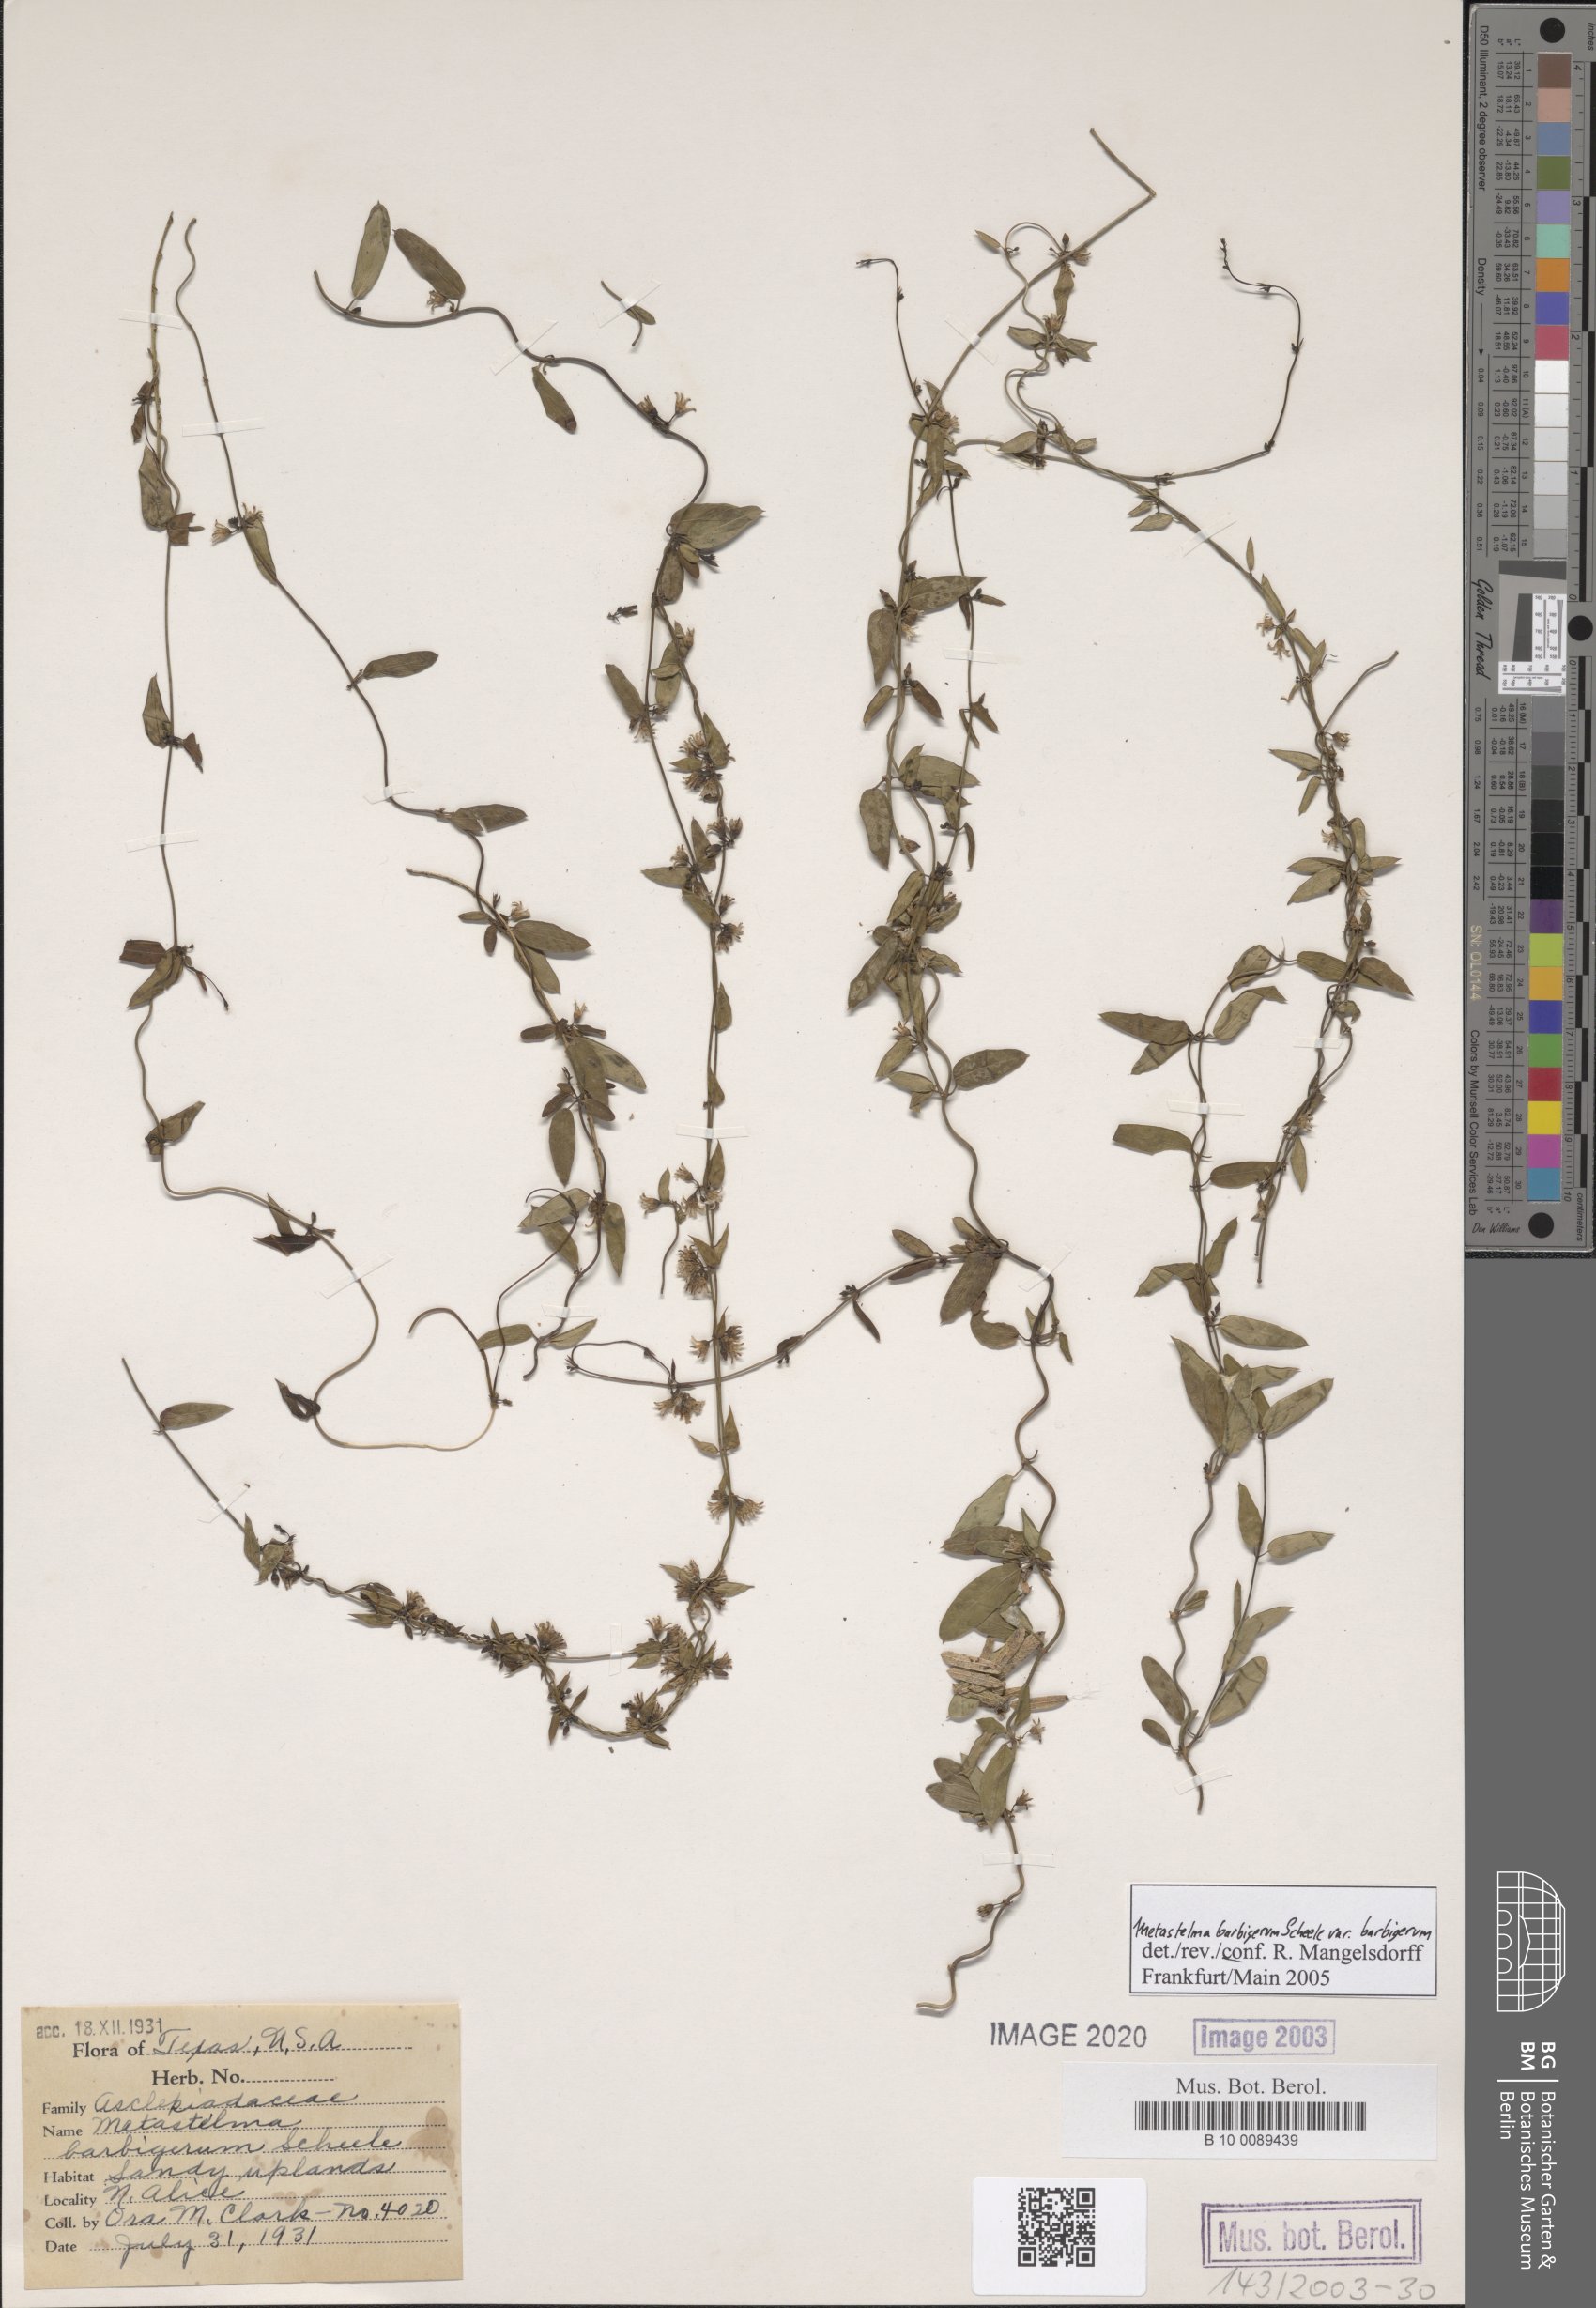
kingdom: Plantae
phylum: Tracheophyta
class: Magnoliopsida
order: Gentianales
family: Apocynaceae
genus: Metastelma
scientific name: Metastelma barbigerum
